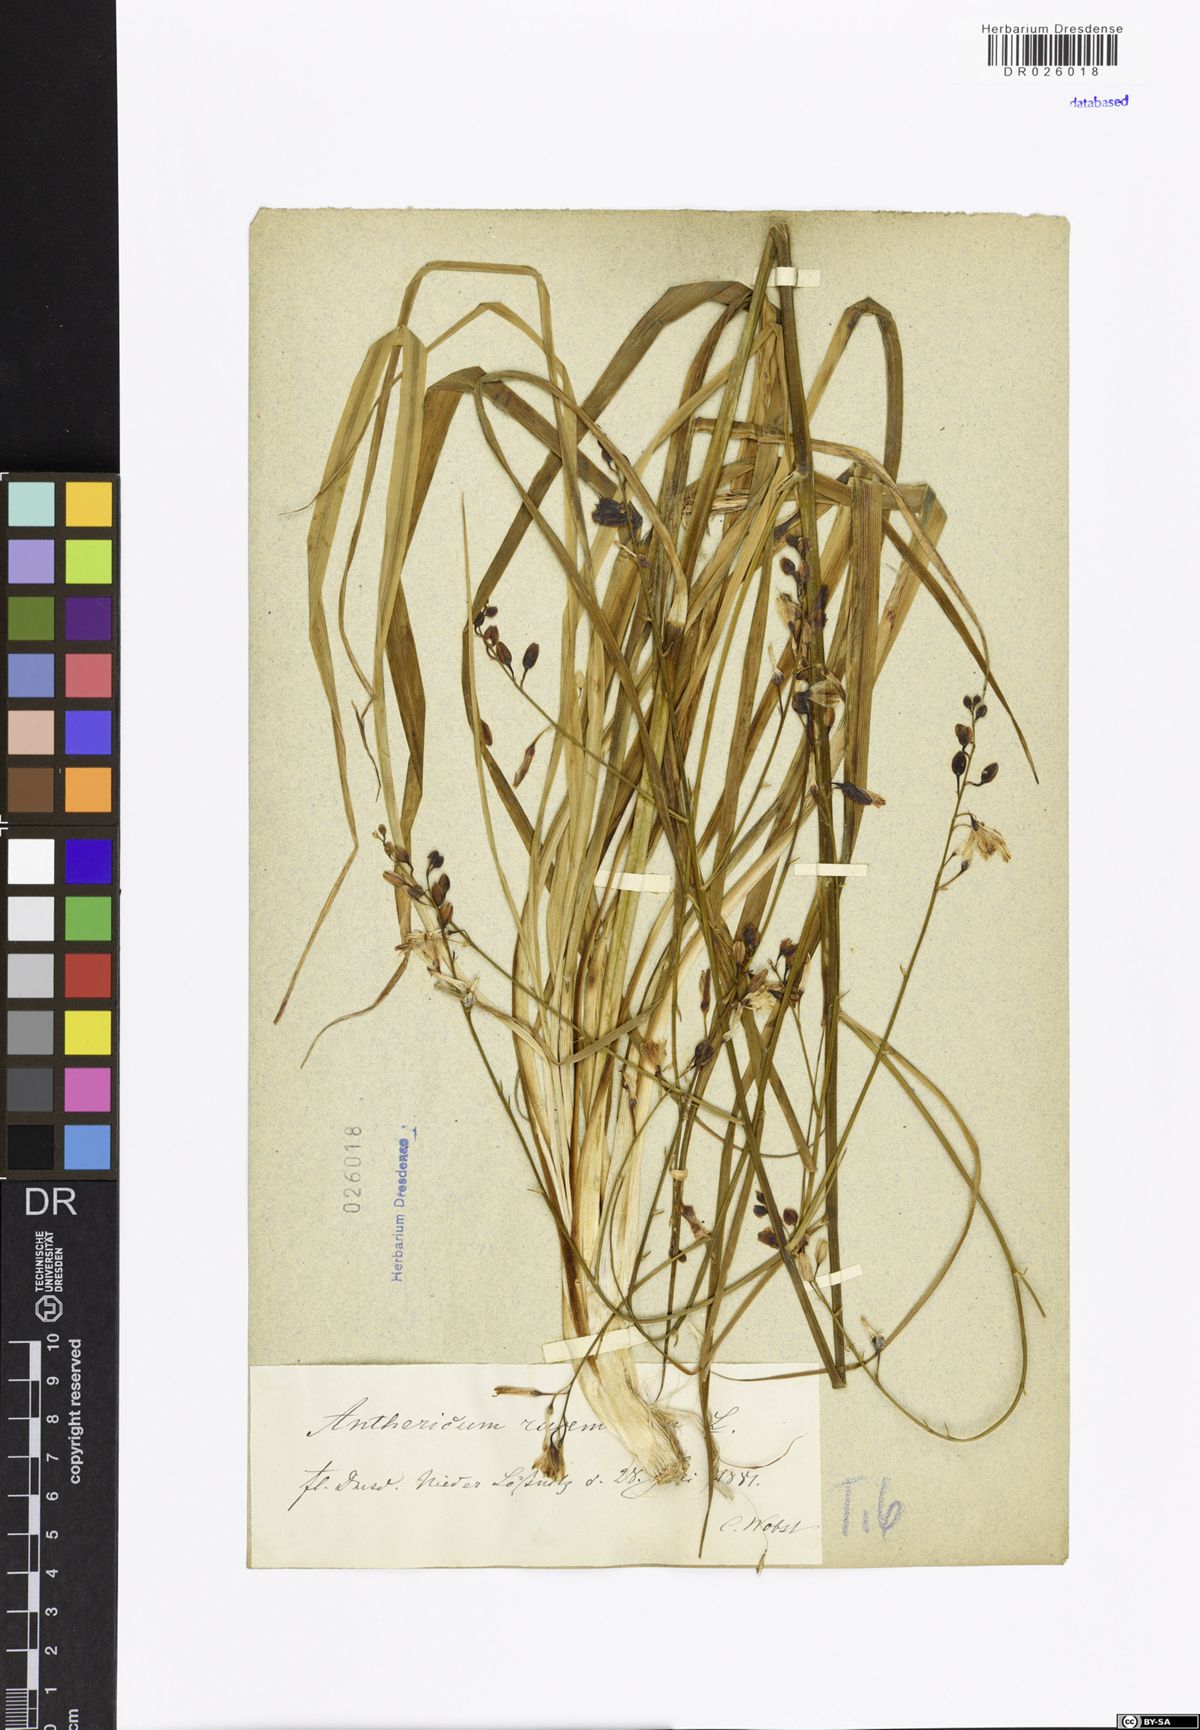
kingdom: Plantae
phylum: Tracheophyta
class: Liliopsida
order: Asparagales
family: Asparagaceae
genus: Anthericum
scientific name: Anthericum ramosum
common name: Branched st. bernard's-lily
